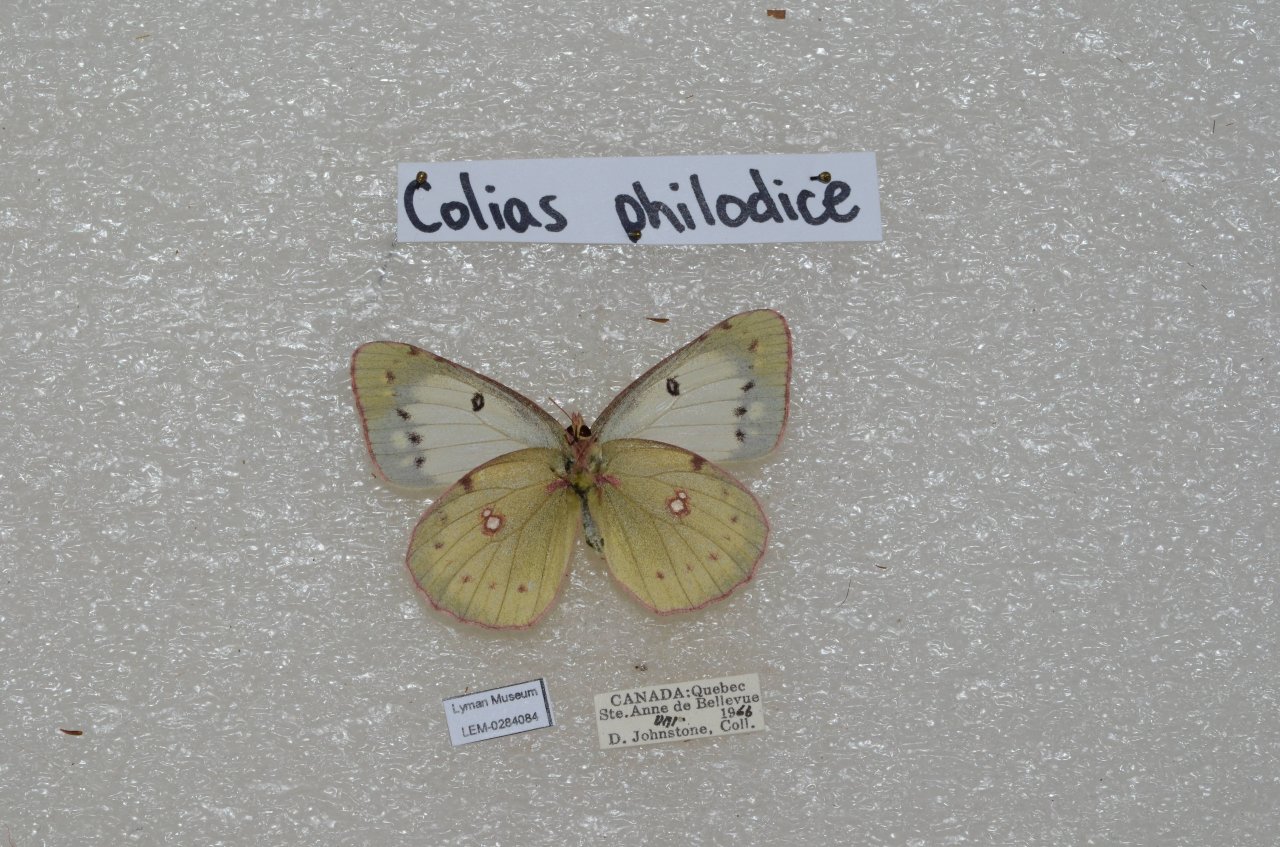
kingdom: Animalia
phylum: Arthropoda
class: Insecta
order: Lepidoptera
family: Pieridae
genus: Colias
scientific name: Colias philodice
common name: Clouded Sulphur
